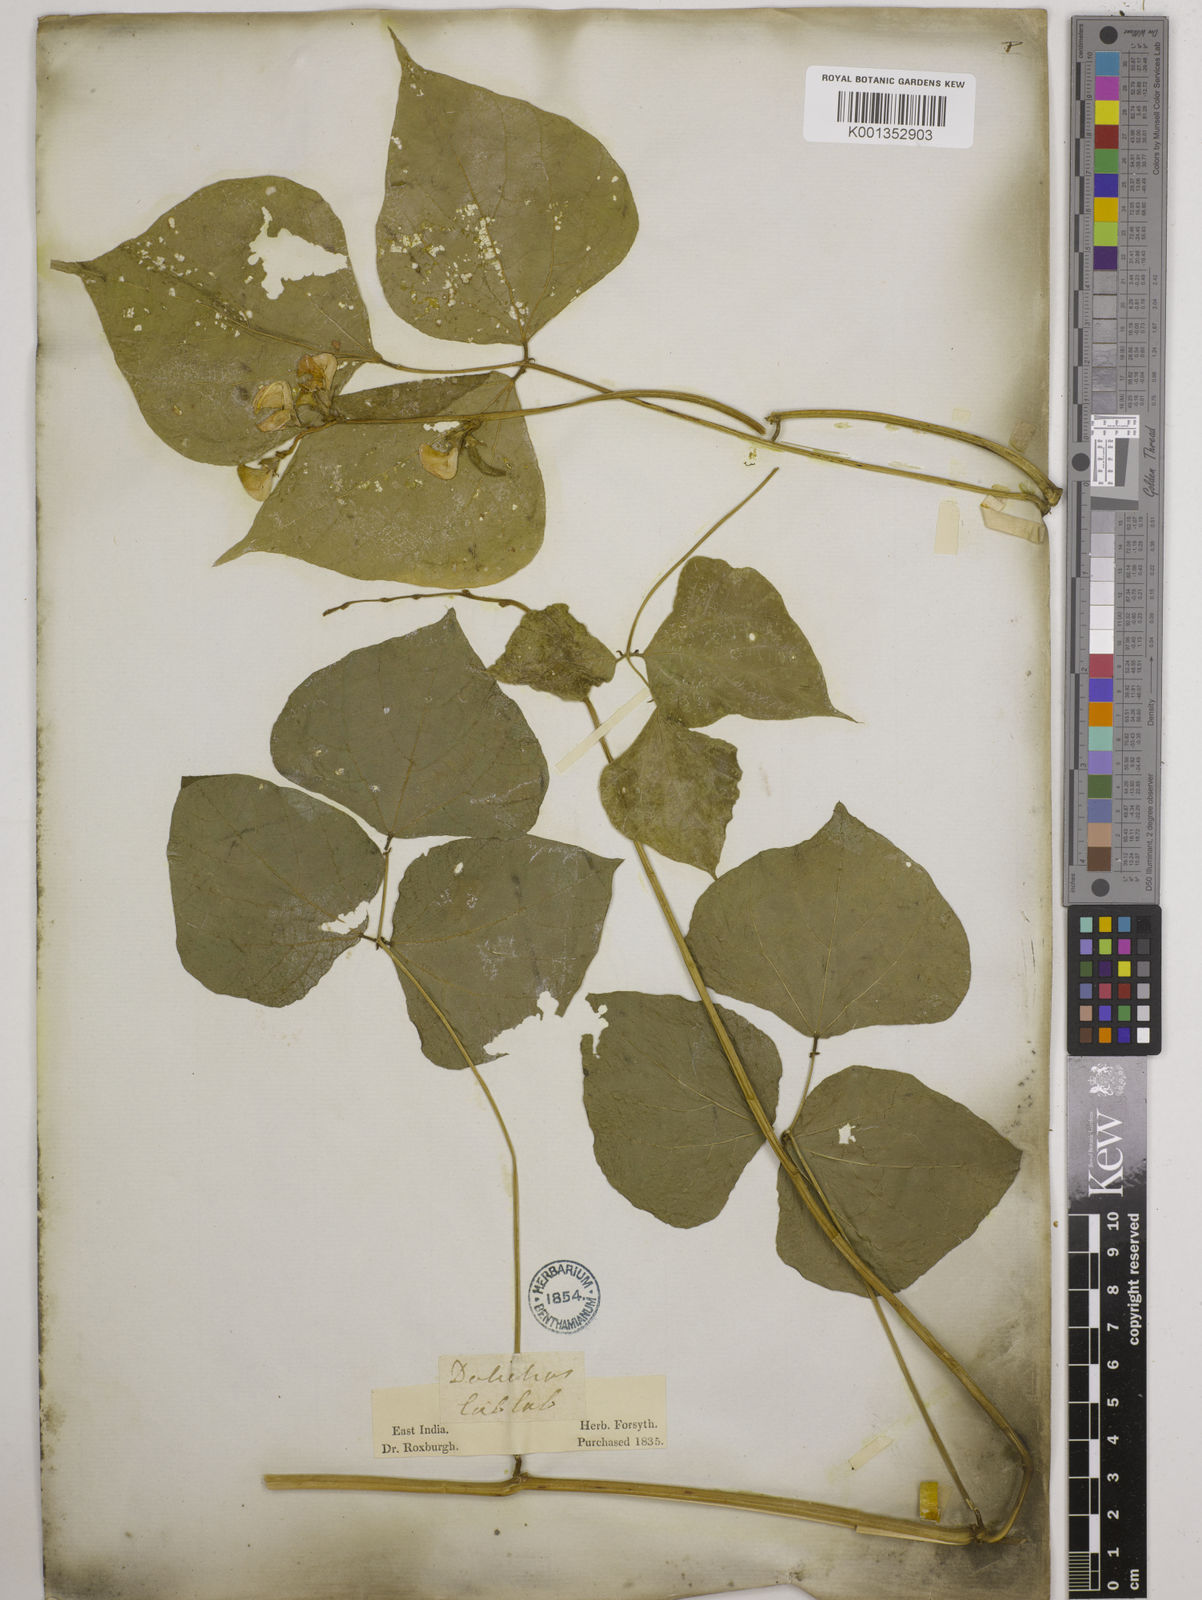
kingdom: Plantae
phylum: Tracheophyta
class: Magnoliopsida
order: Fabales
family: Fabaceae
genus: Lablab
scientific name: Lablab purpureus
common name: Lablab-bean
